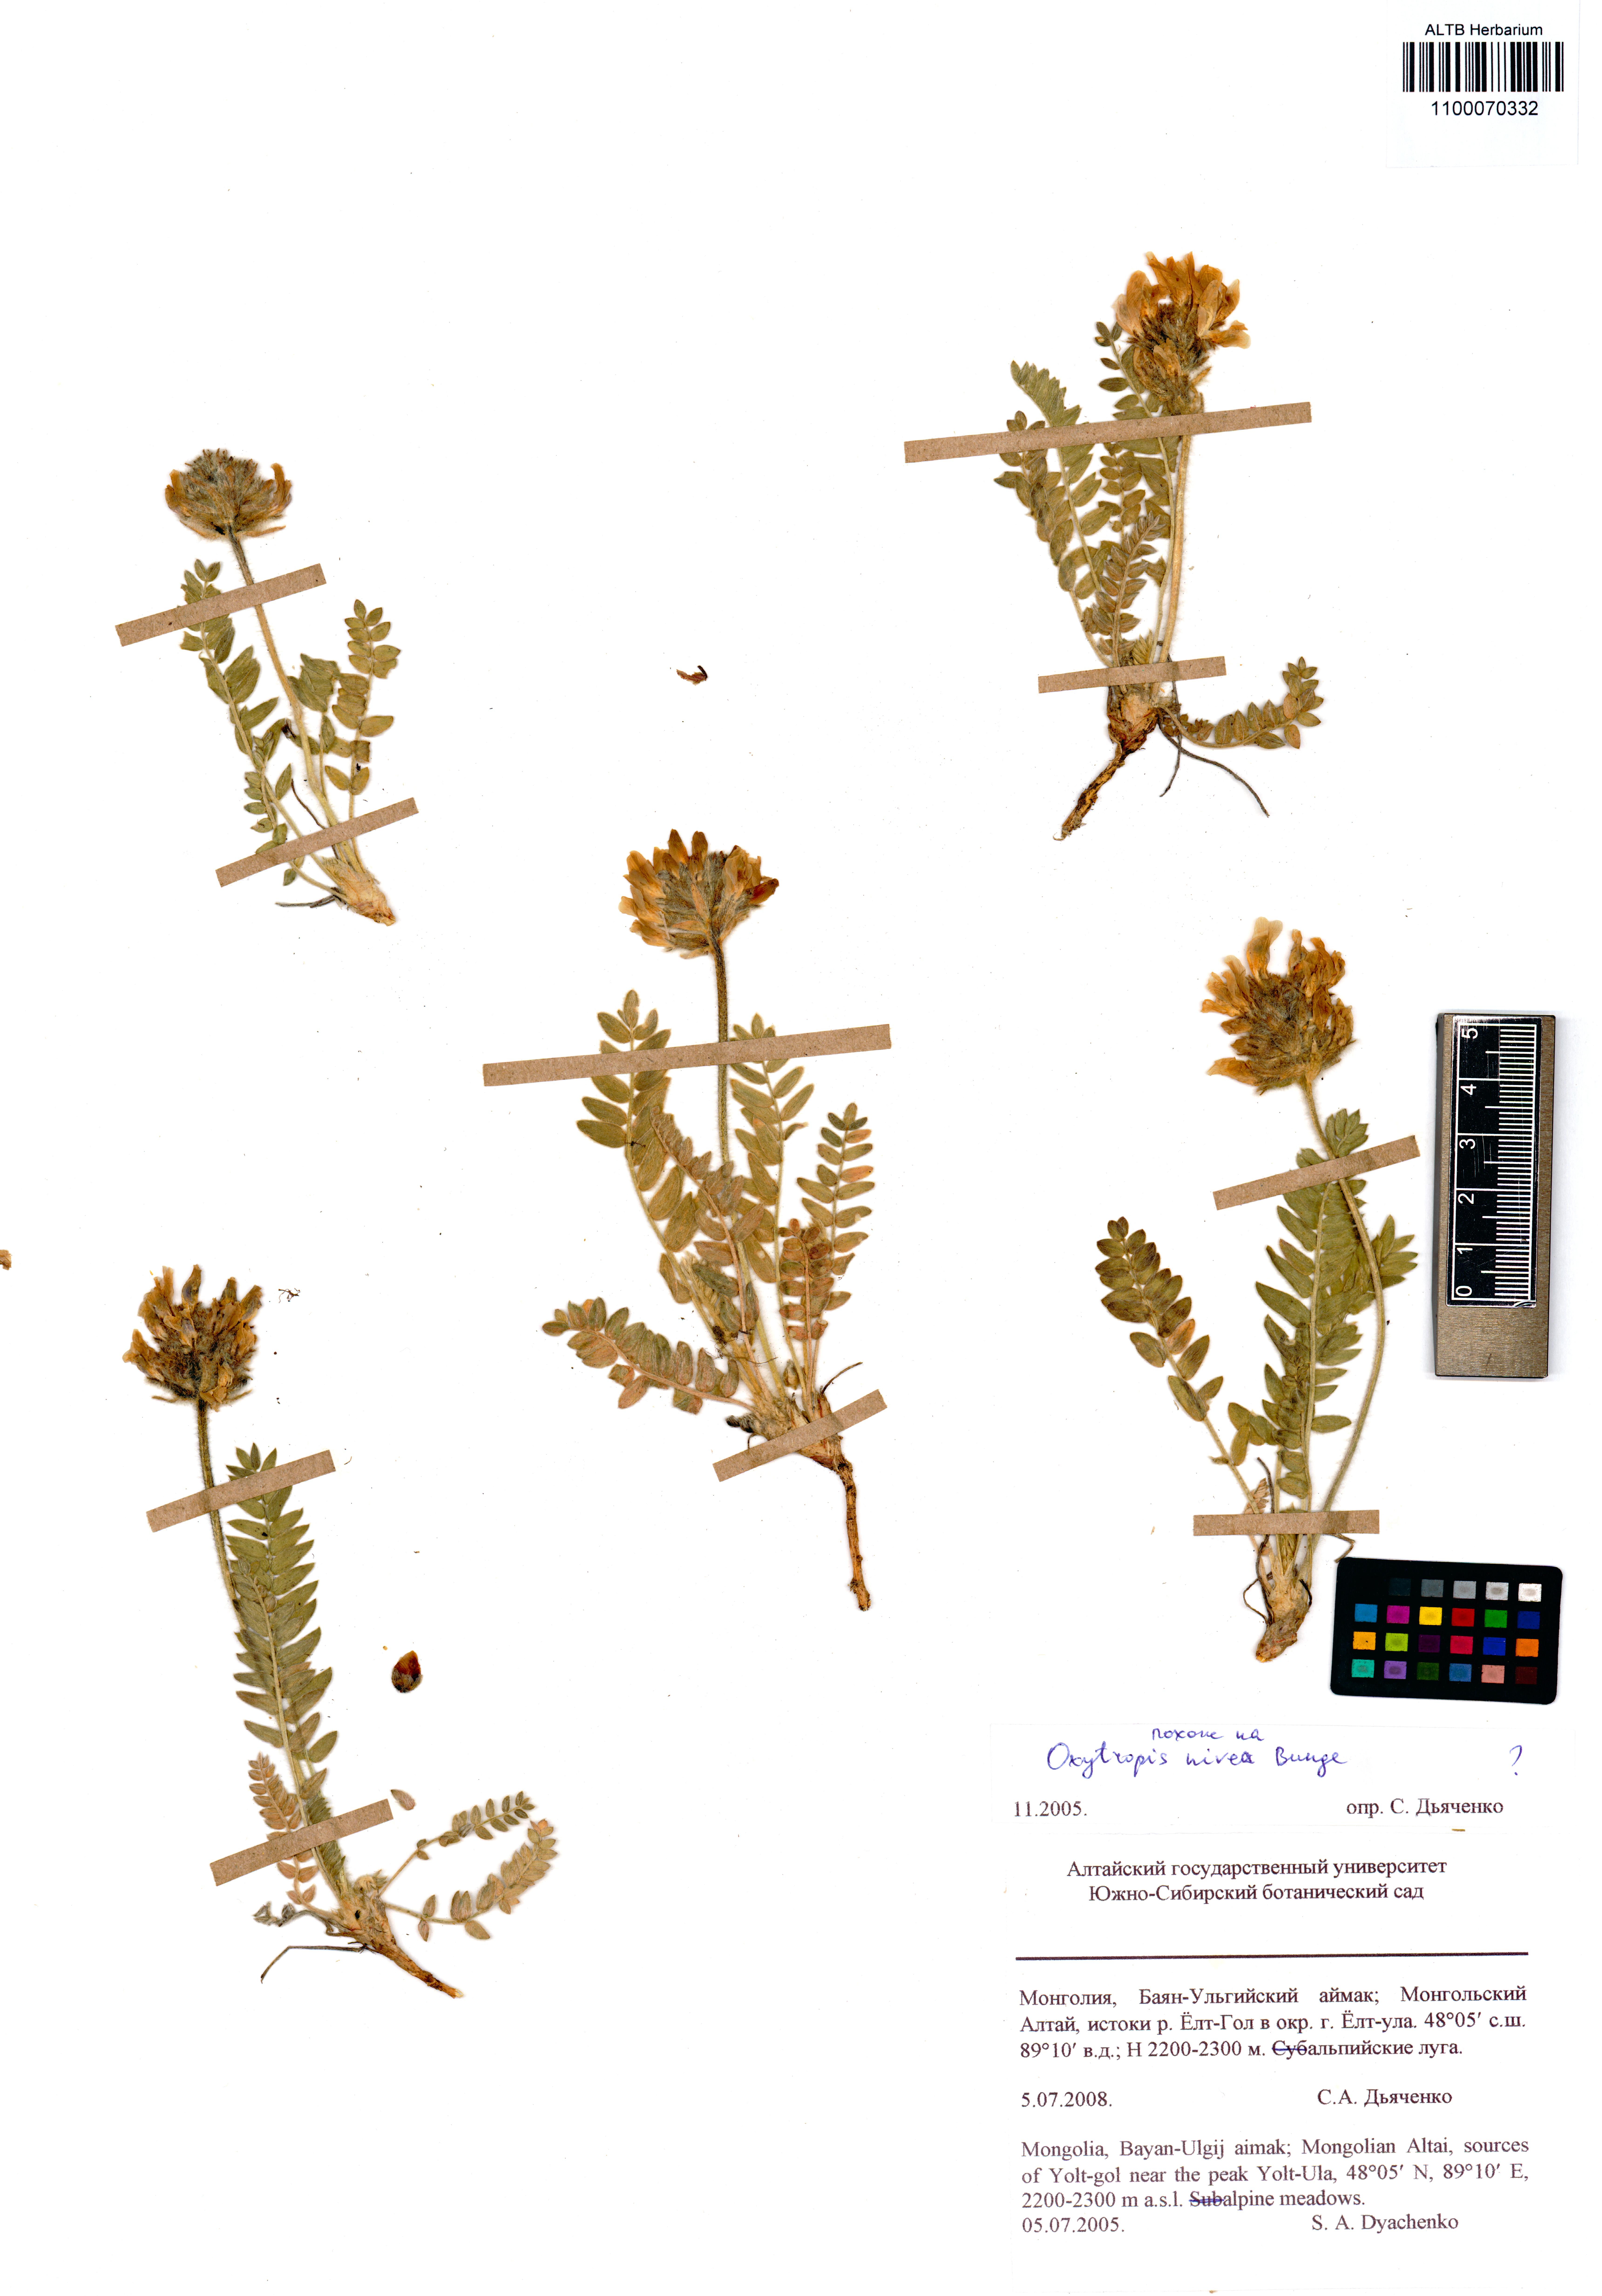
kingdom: Plantae
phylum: Tracheophyta
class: Magnoliopsida
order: Fabales
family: Fabaceae
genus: Oxytropis
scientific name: Oxytropis nivea
